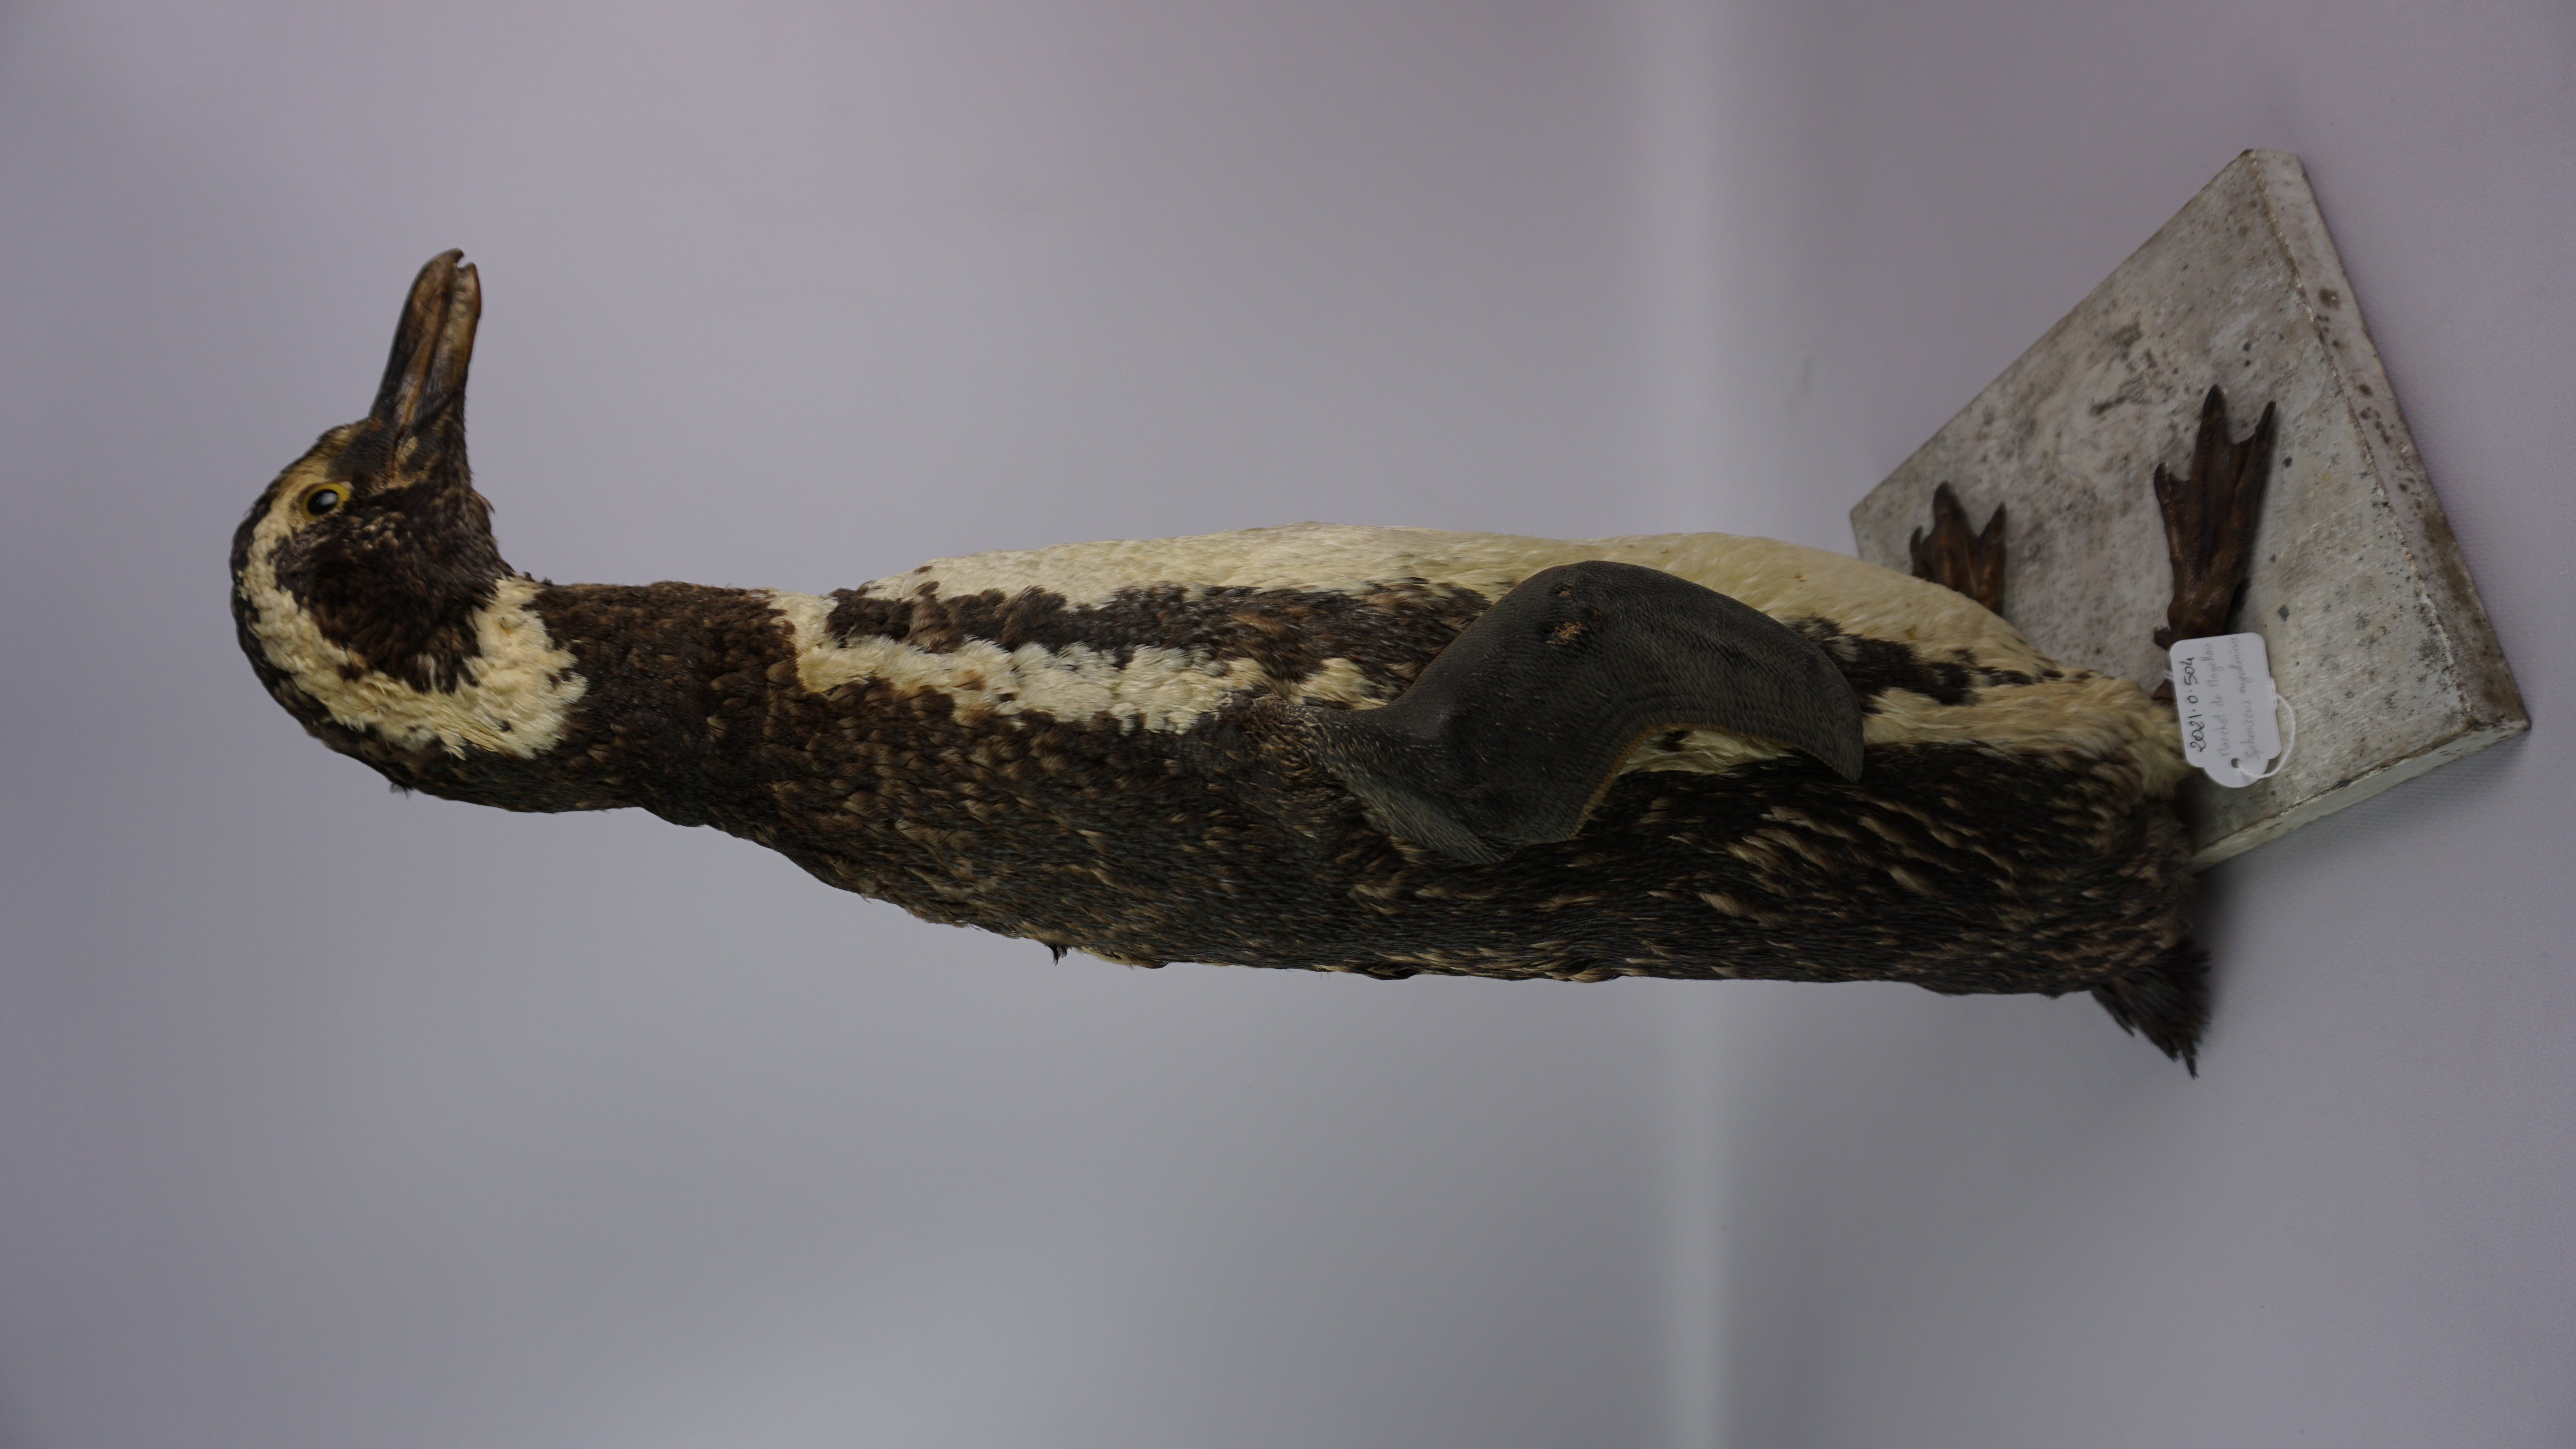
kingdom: Animalia
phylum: Chordata
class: Aves
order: Sphenisciformes
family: Spheniscidae
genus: Spheniscus
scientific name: Spheniscus magellanicus
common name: Magellanic penguin
